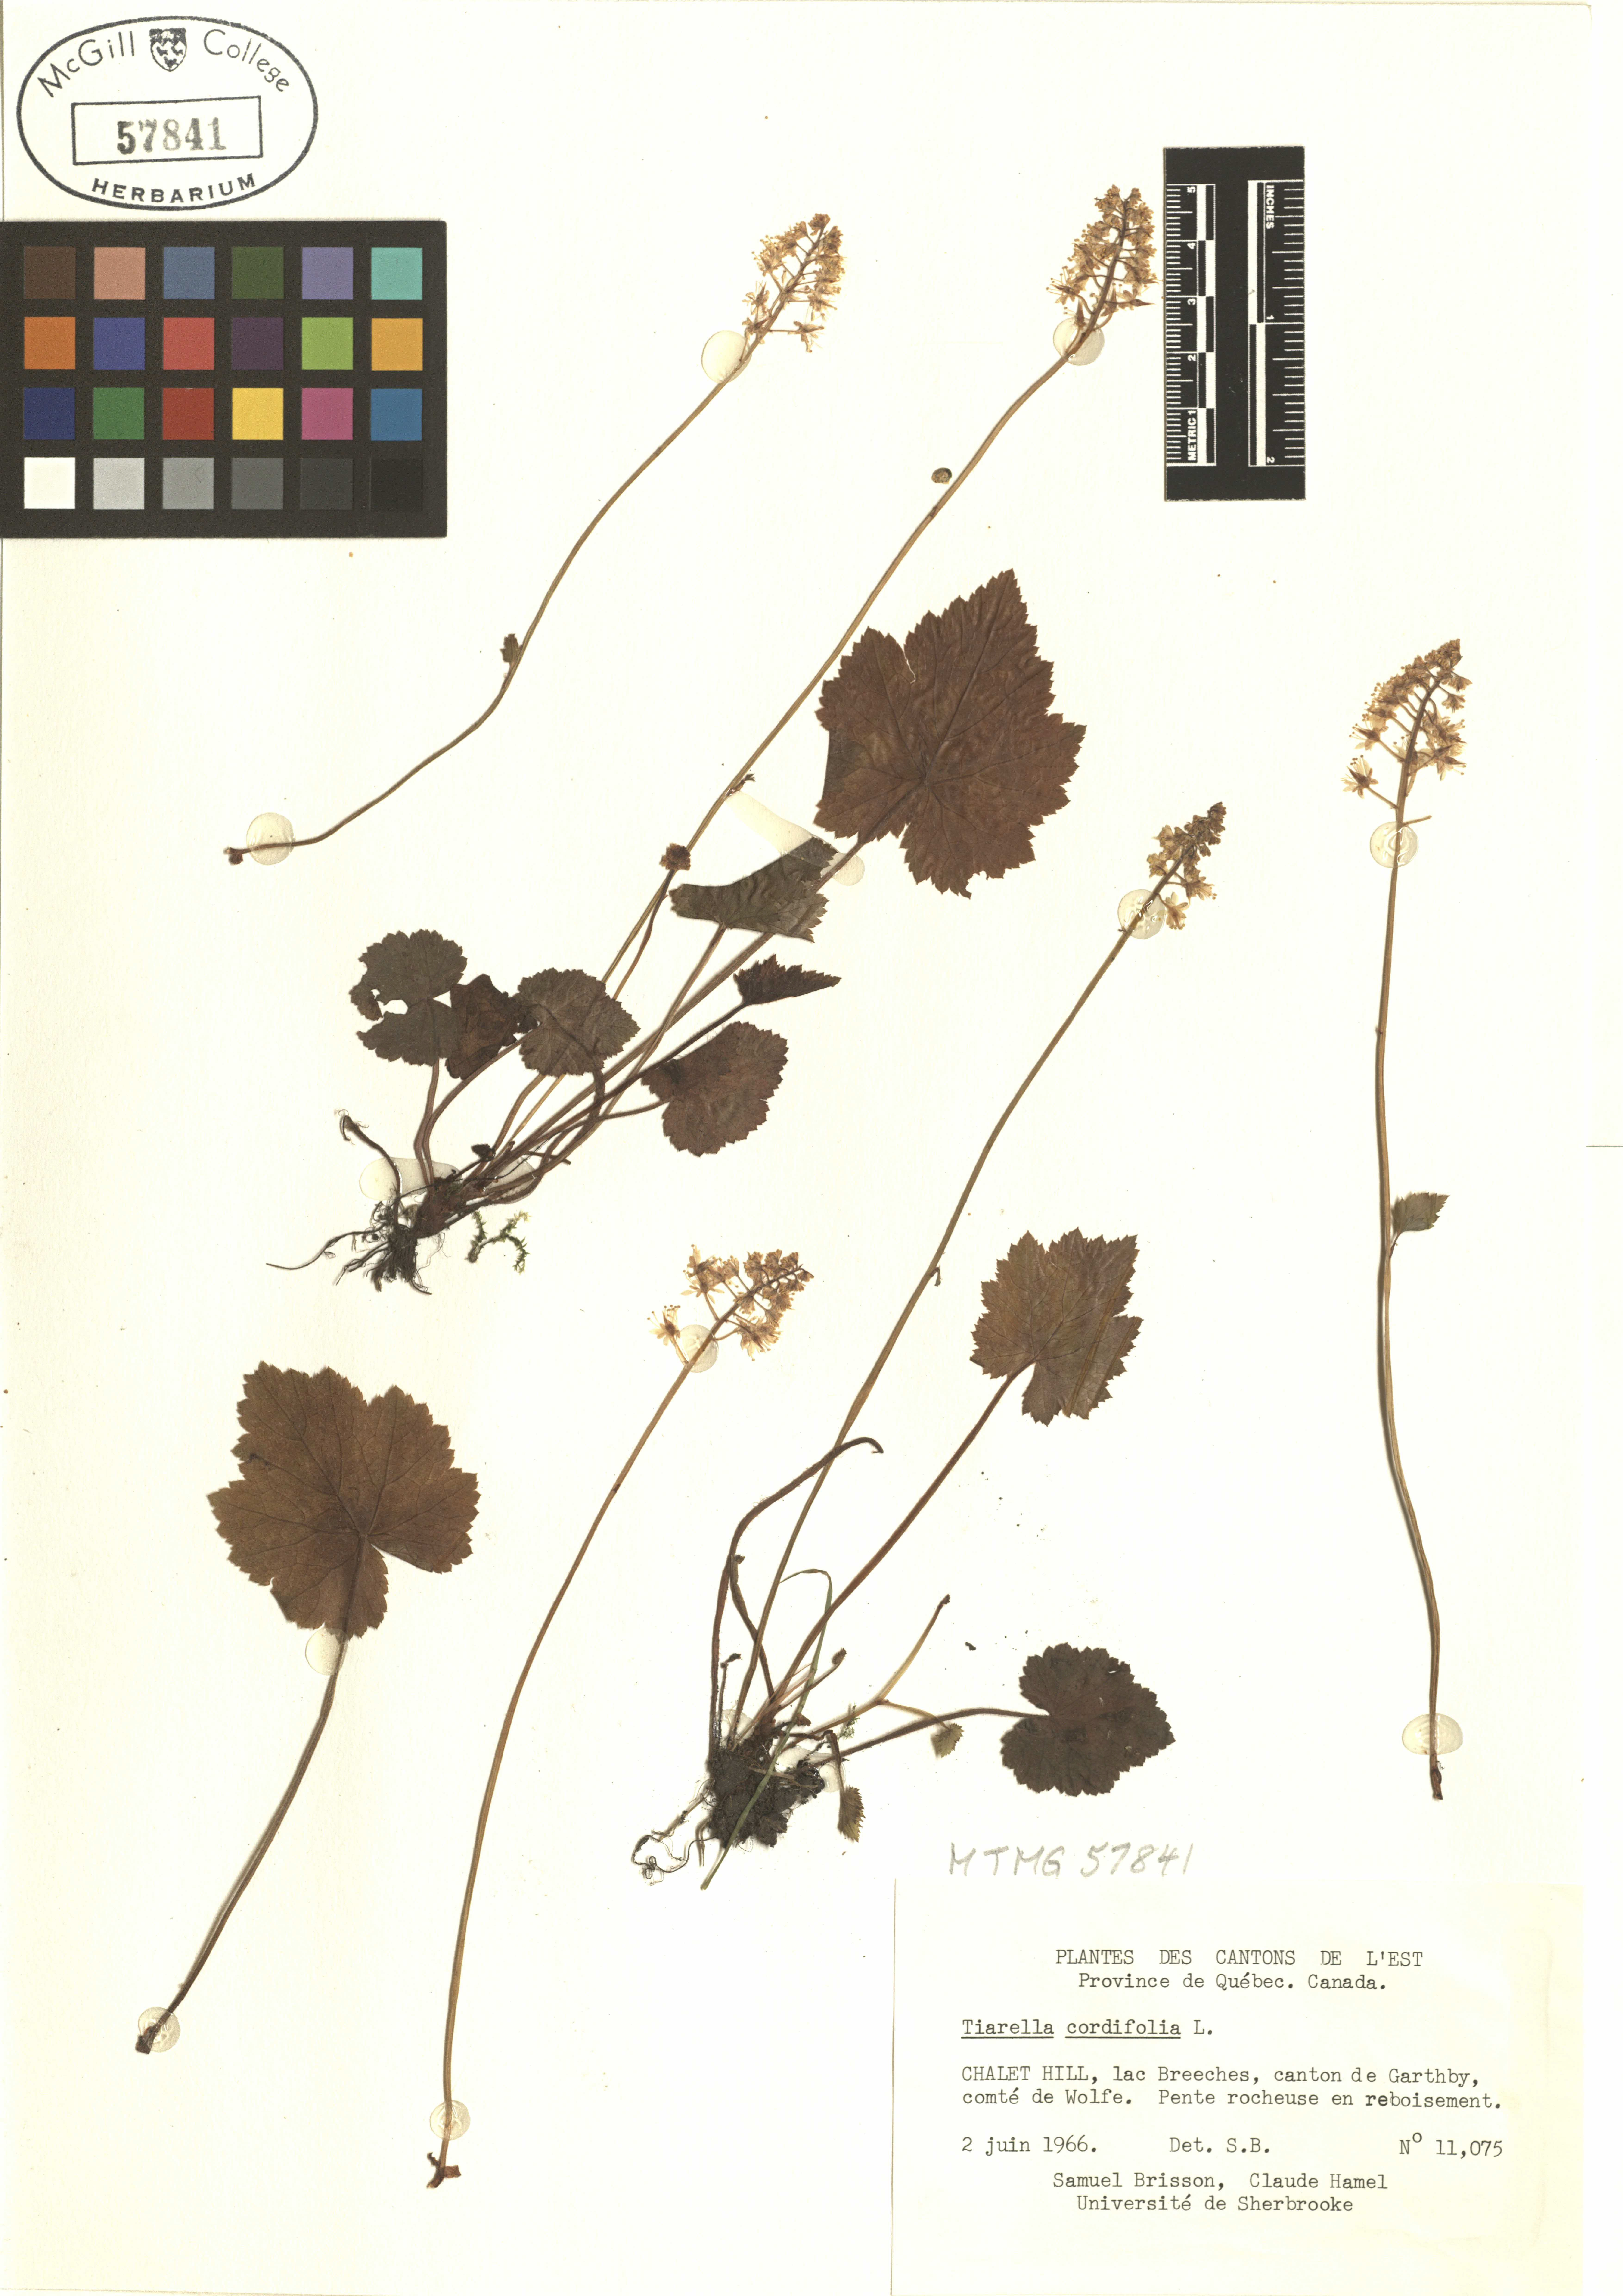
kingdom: Plantae
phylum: Tracheophyta
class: Magnoliopsida
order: Saxifragales
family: Saxifragaceae
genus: Tiarella
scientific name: Tiarella cordifolia
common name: Foamflower
